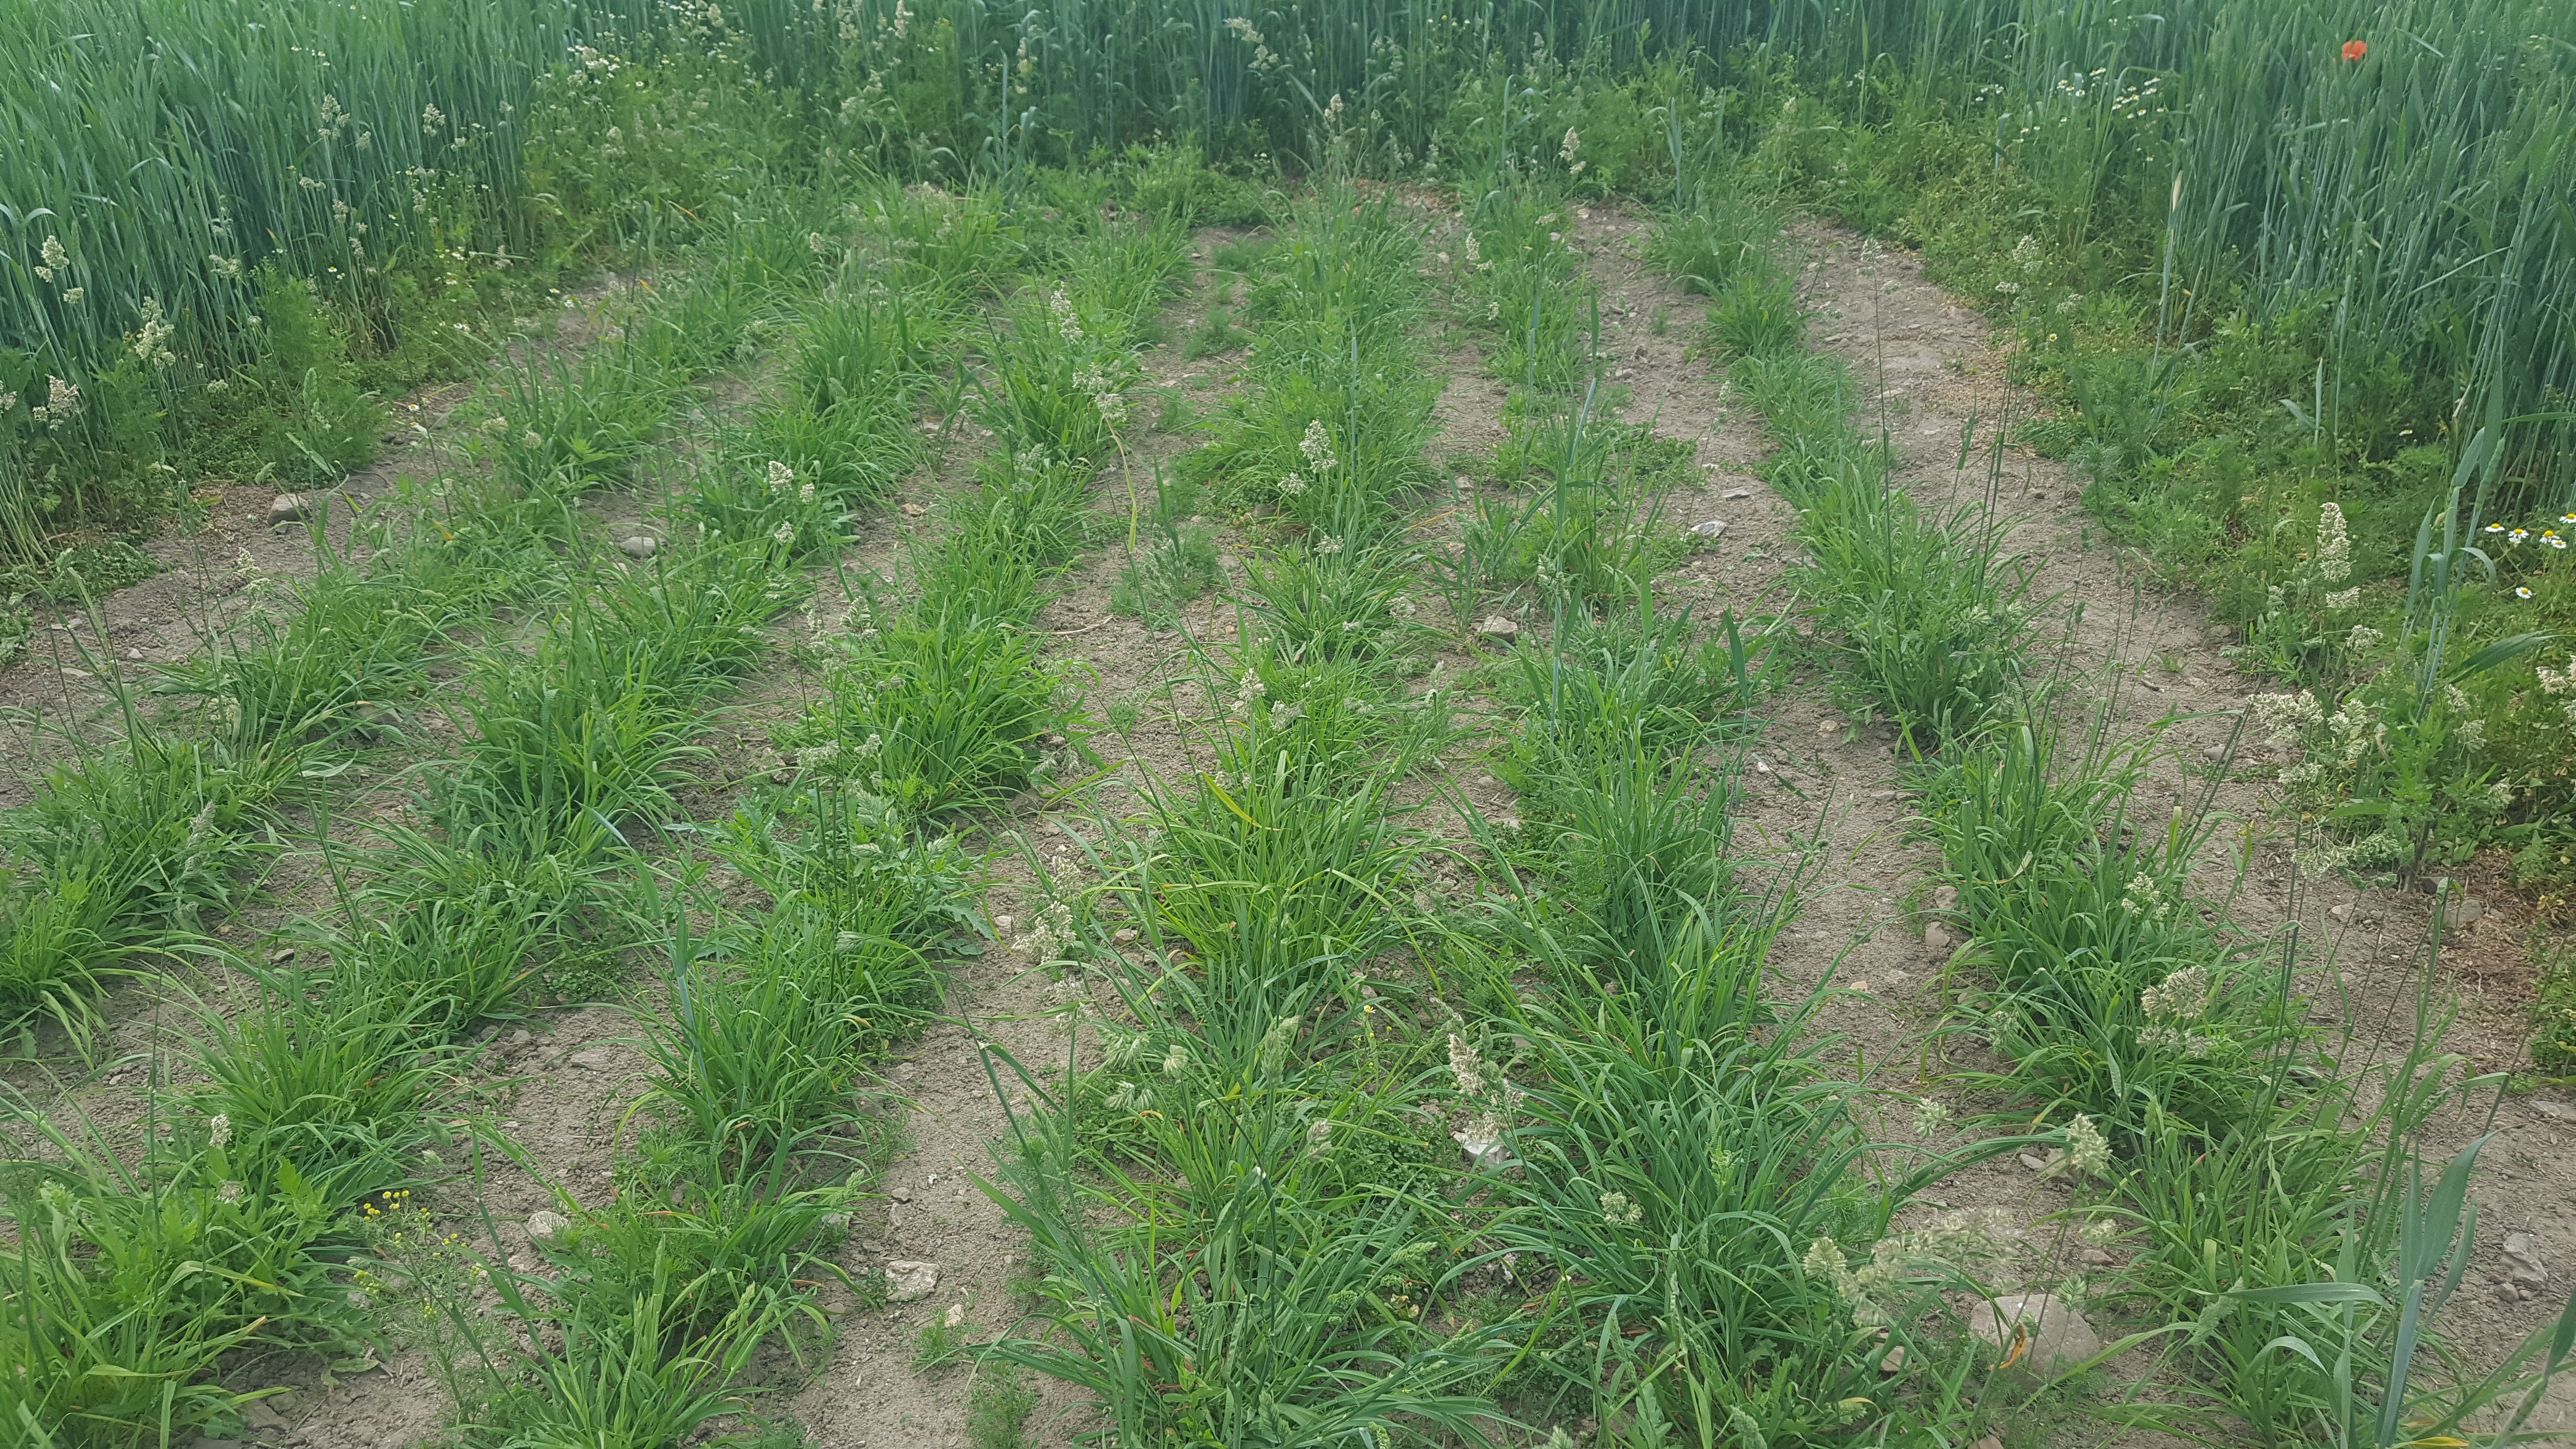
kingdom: Plantae
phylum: Tracheophyta
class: Liliopsida
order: Poales
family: Poaceae
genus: Dactylis
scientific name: Dactylis glomerata
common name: Orchardgrass
